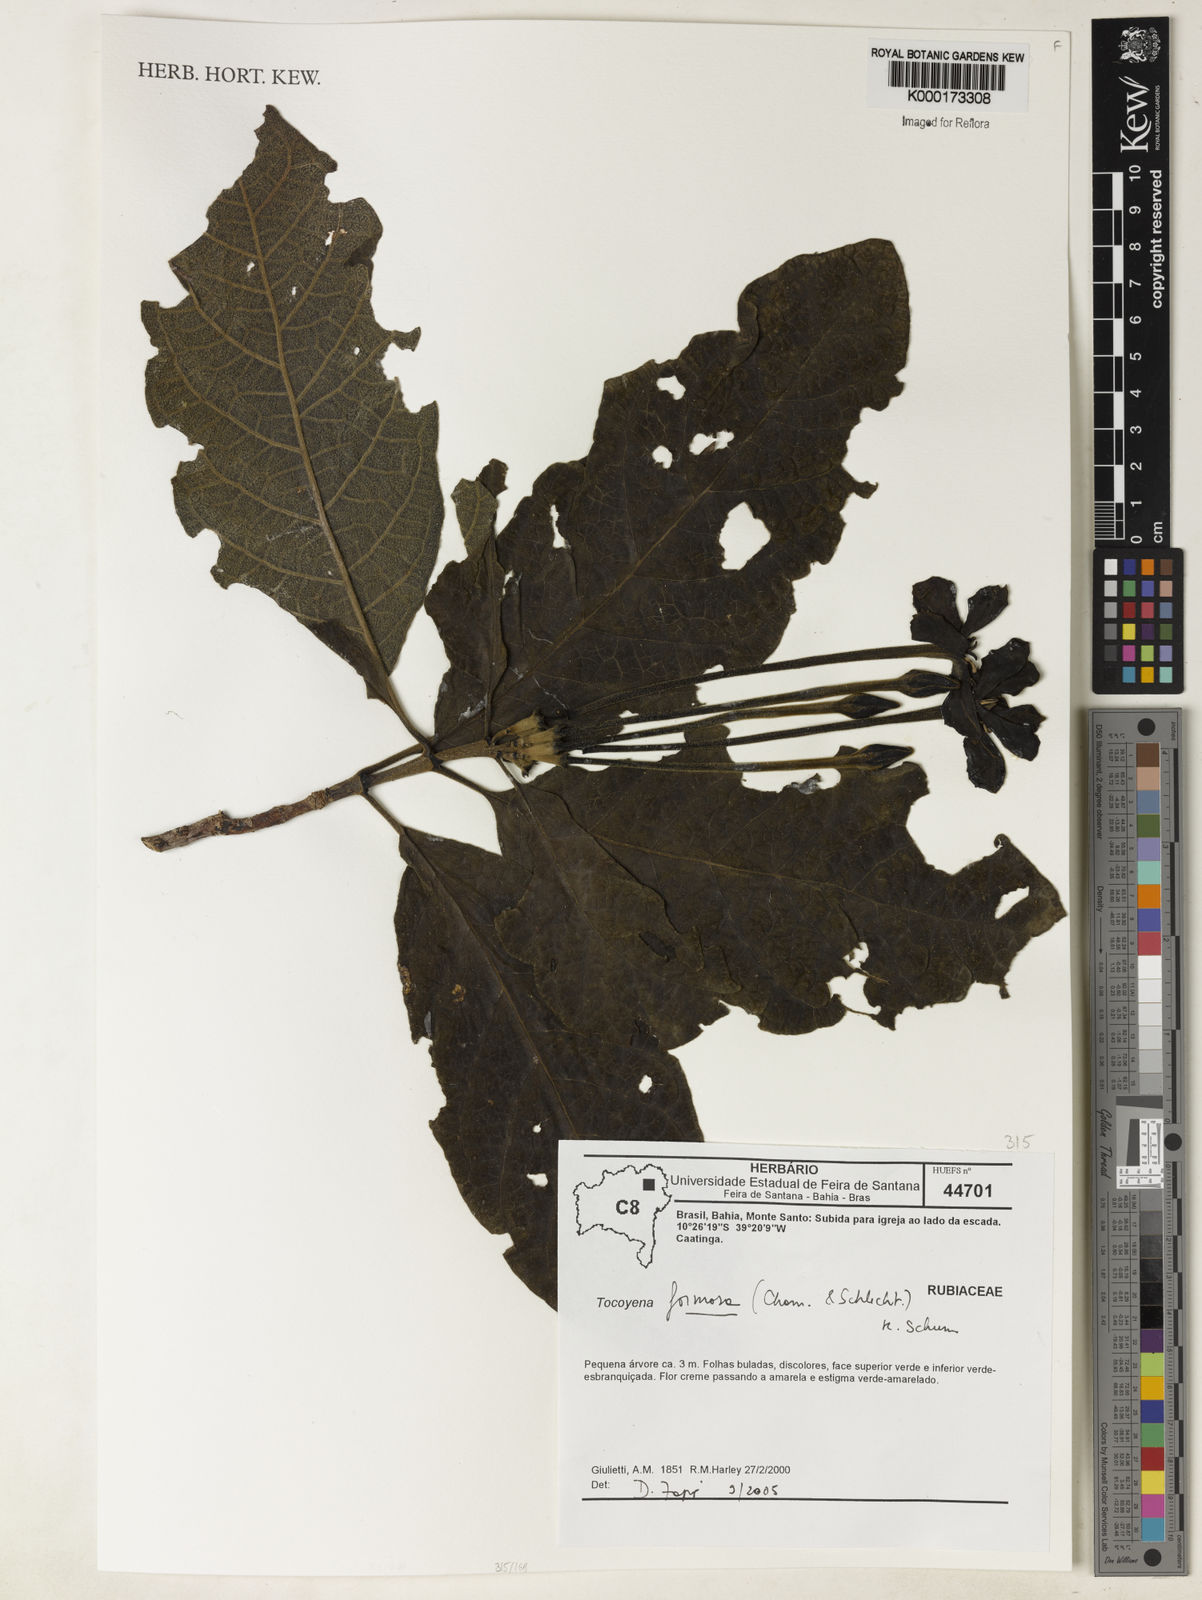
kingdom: Plantae
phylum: Tracheophyta
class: Magnoliopsida
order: Gentianales
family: Rubiaceae
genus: Tocoyena
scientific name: Tocoyena formosa
